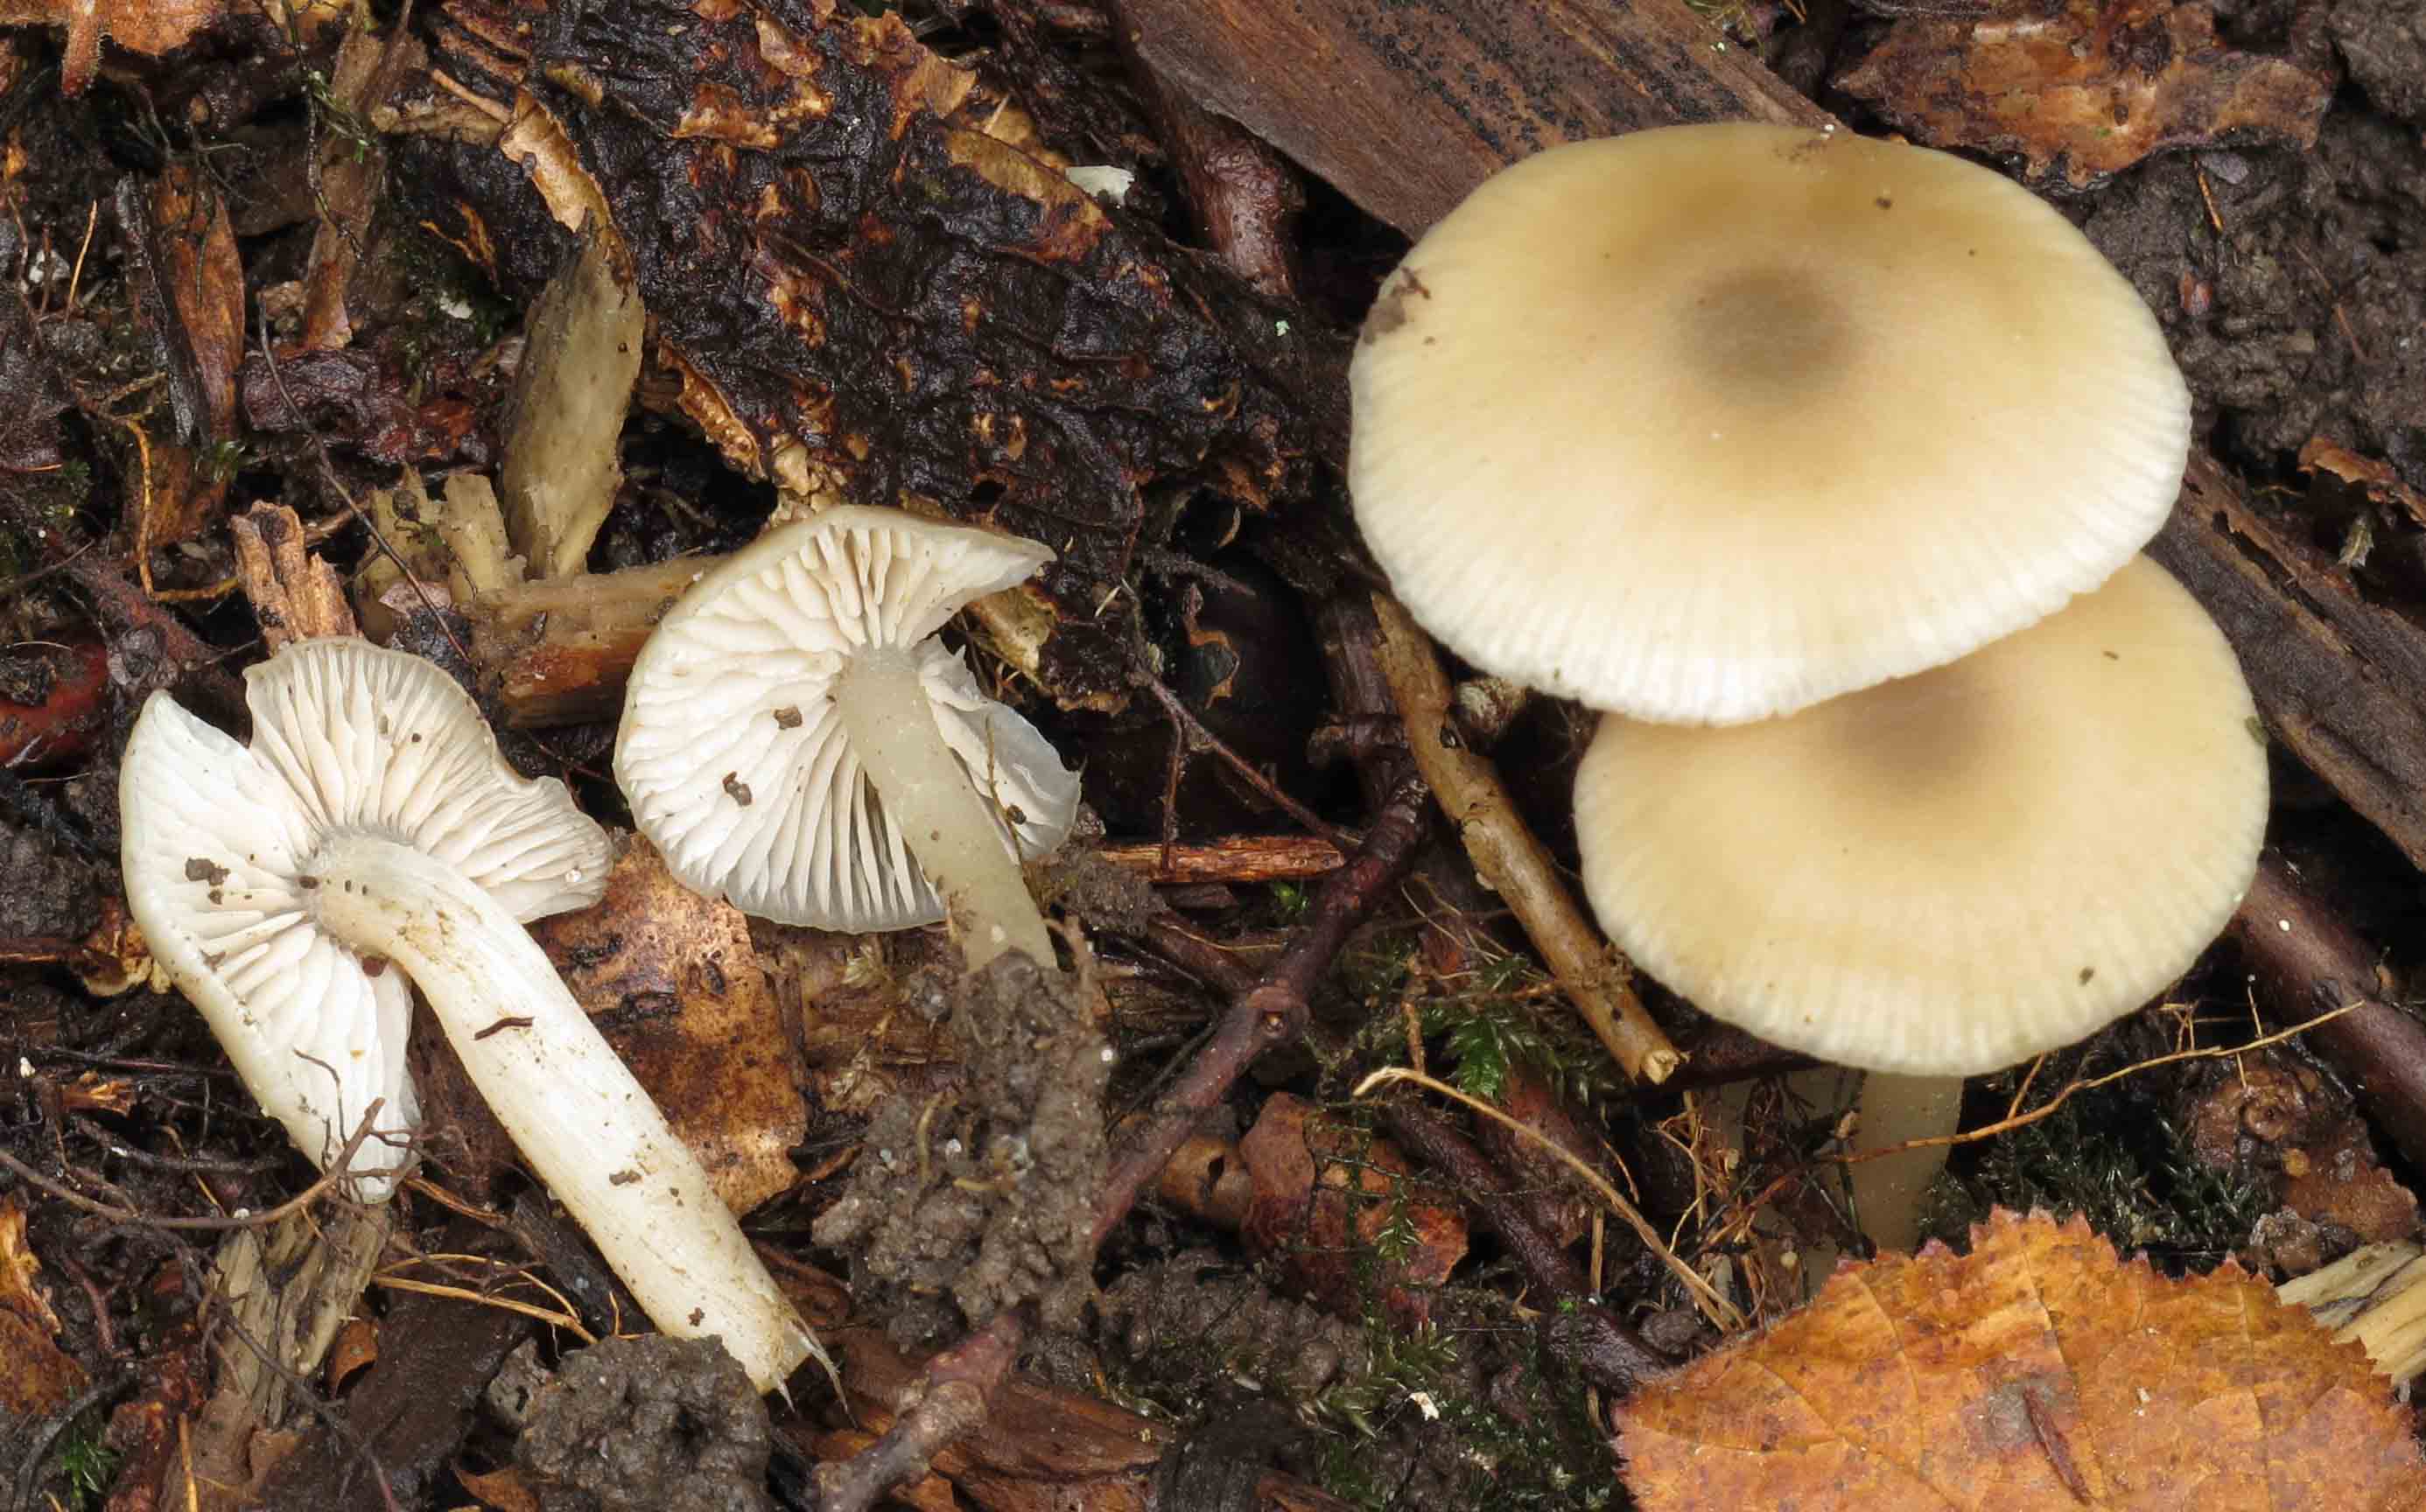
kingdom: Fungi
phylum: Basidiomycota
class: Agaricomycetes
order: Agaricales
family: Entolomataceae
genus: Entoloma
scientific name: Entoloma politum
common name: poleret rødblad
